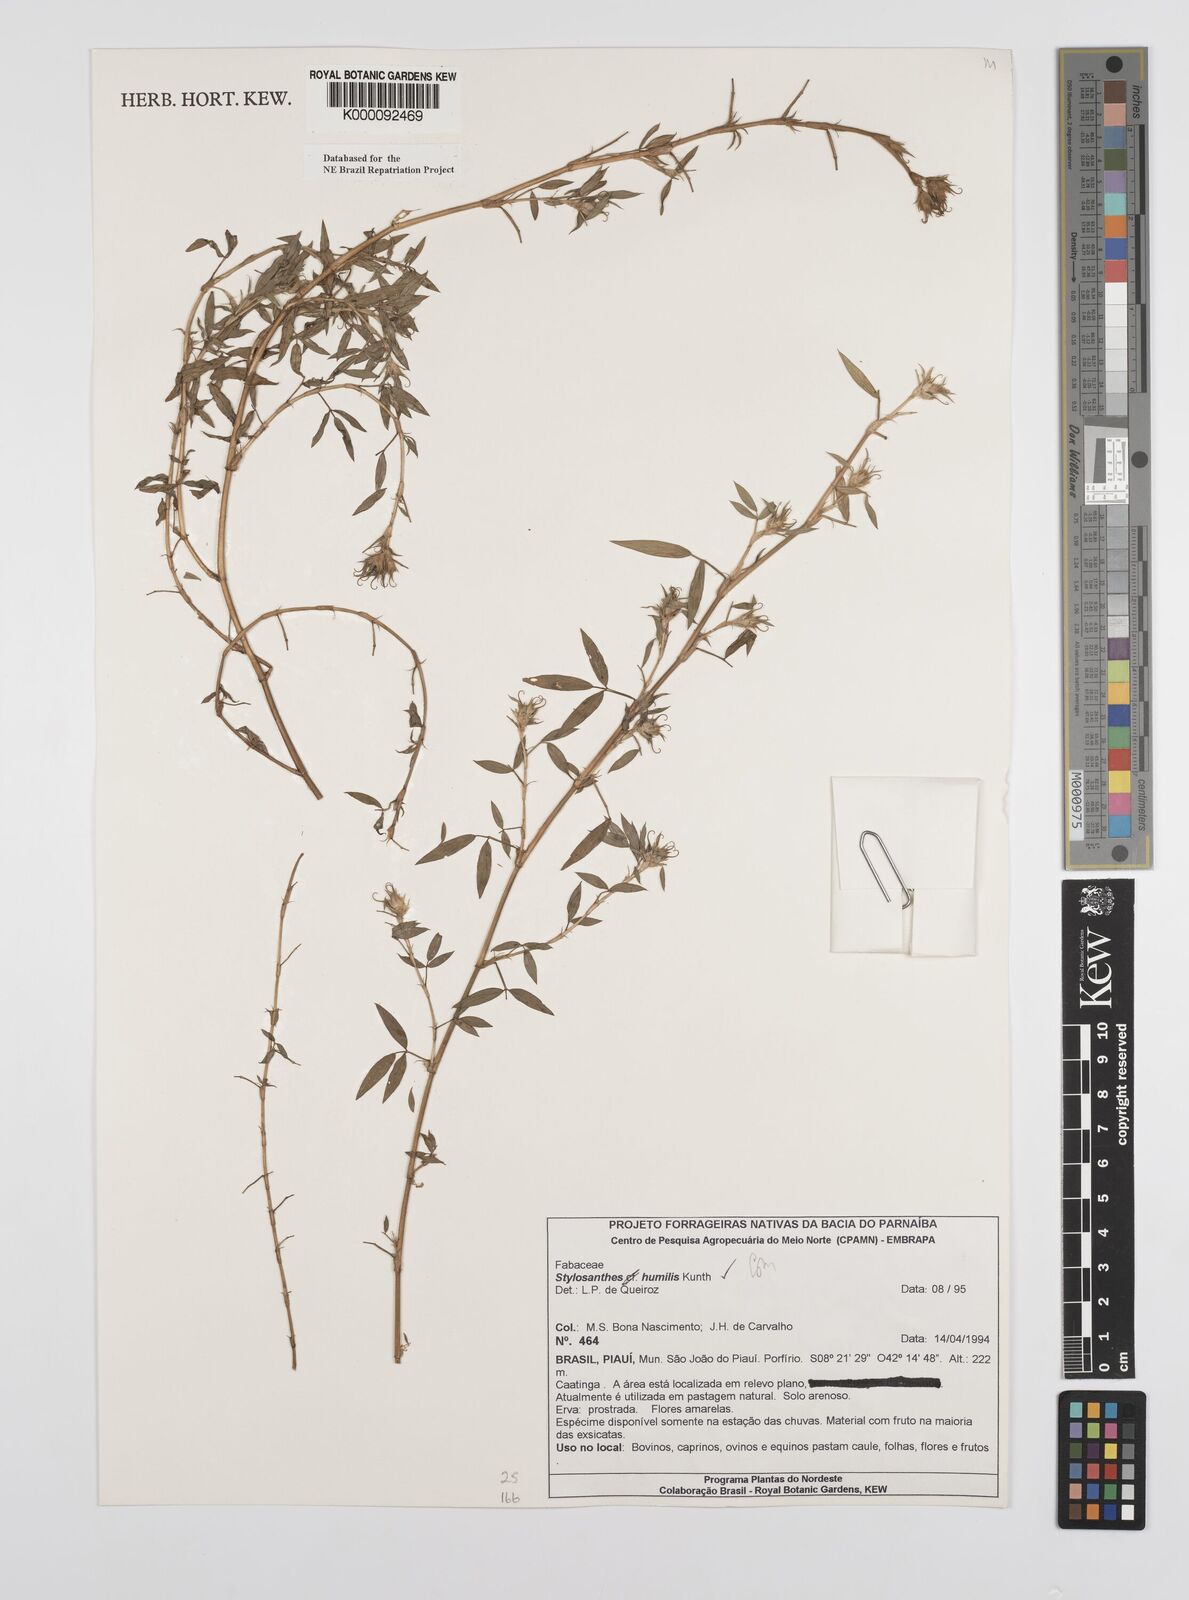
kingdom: Plantae
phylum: Tracheophyta
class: Magnoliopsida
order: Fabales
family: Fabaceae
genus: Stylosanthes
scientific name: Stylosanthes humilis
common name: Townsville stylo
